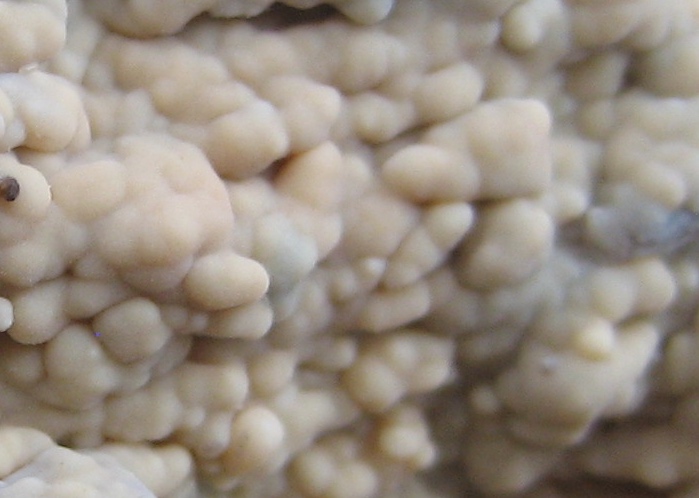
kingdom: Fungi
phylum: Basidiomycota
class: Agaricomycetes
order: Corticiales
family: Corticiaceae
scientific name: Corticiaceae
